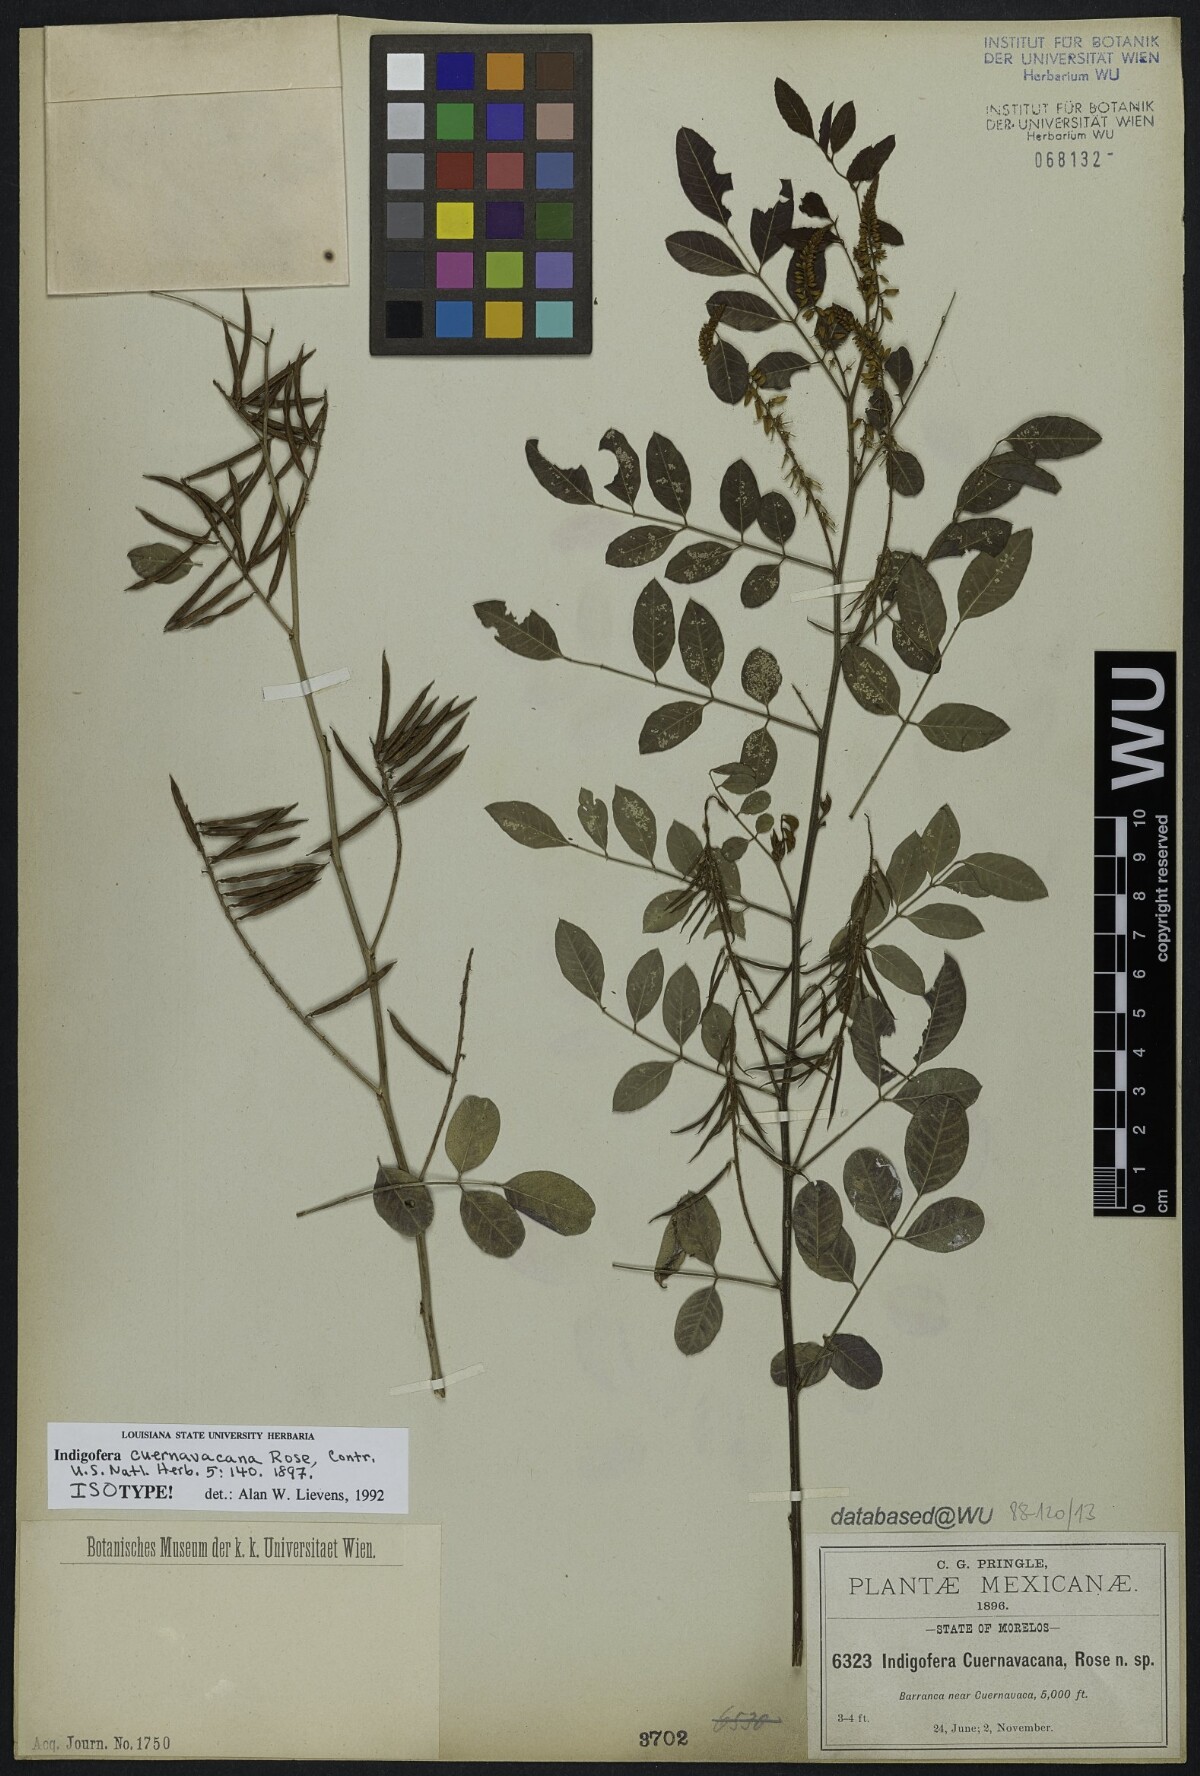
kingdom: Plantae
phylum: Tracheophyta
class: Magnoliopsida
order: Fabales
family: Fabaceae
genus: Indigofera
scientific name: Indigofera cuernavacana
